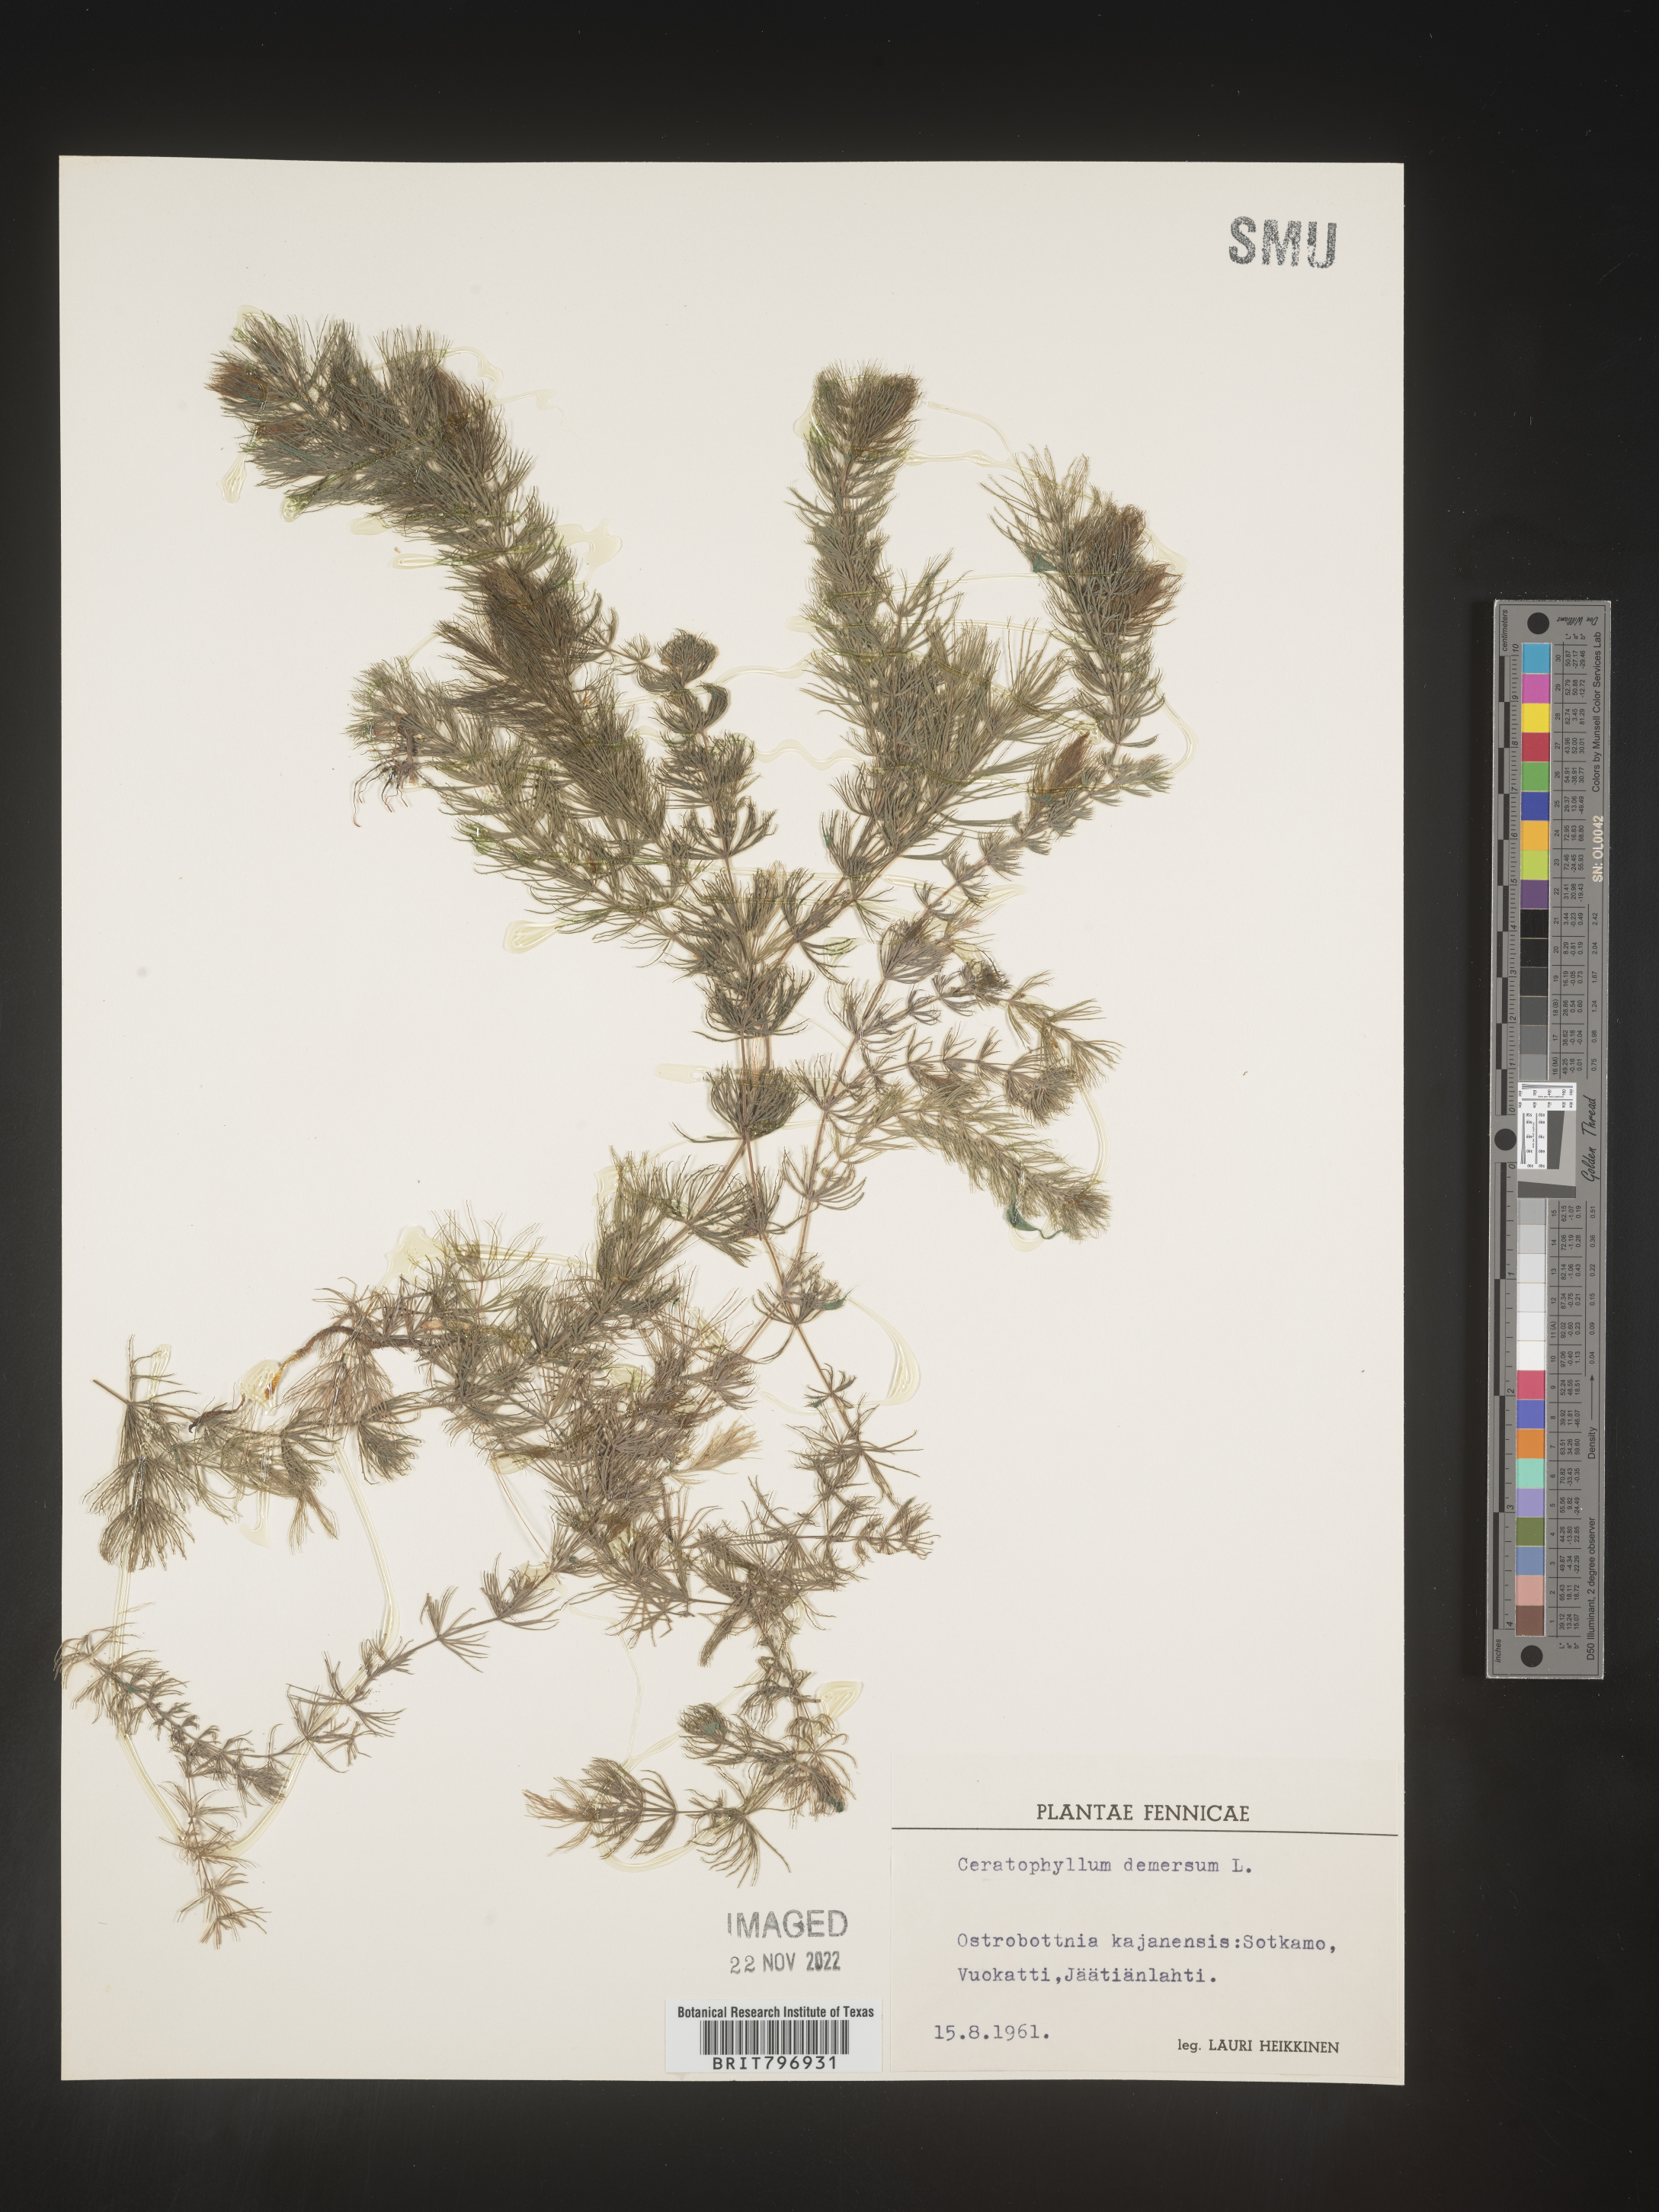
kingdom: Plantae
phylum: Tracheophyta
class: Magnoliopsida
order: Ceratophyllales
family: Ceratophyllaceae
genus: Ceratophyllum
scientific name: Ceratophyllum
